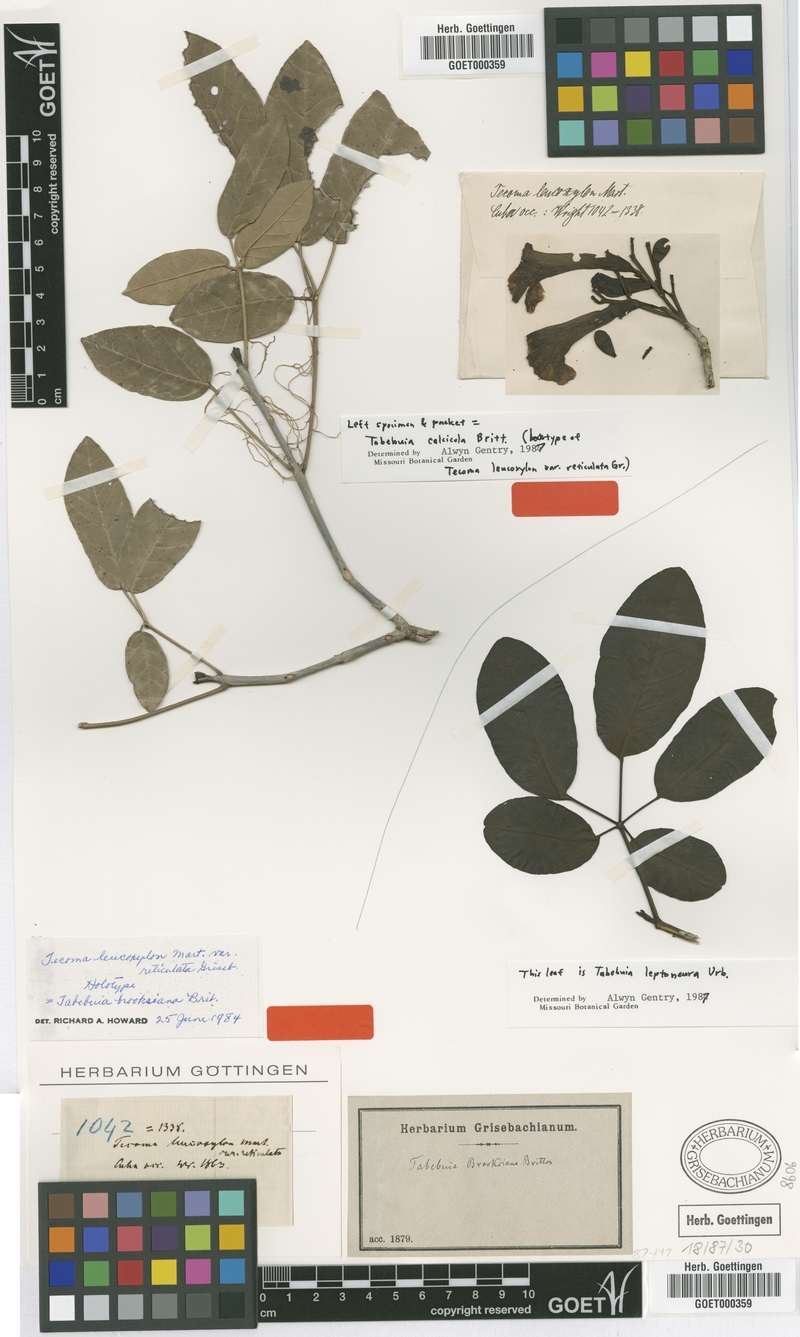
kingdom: Plantae
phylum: Tracheophyta
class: Magnoliopsida
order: Lamiales
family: Bignoniaceae
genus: Tabebuia
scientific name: Tabebuia calcicola
